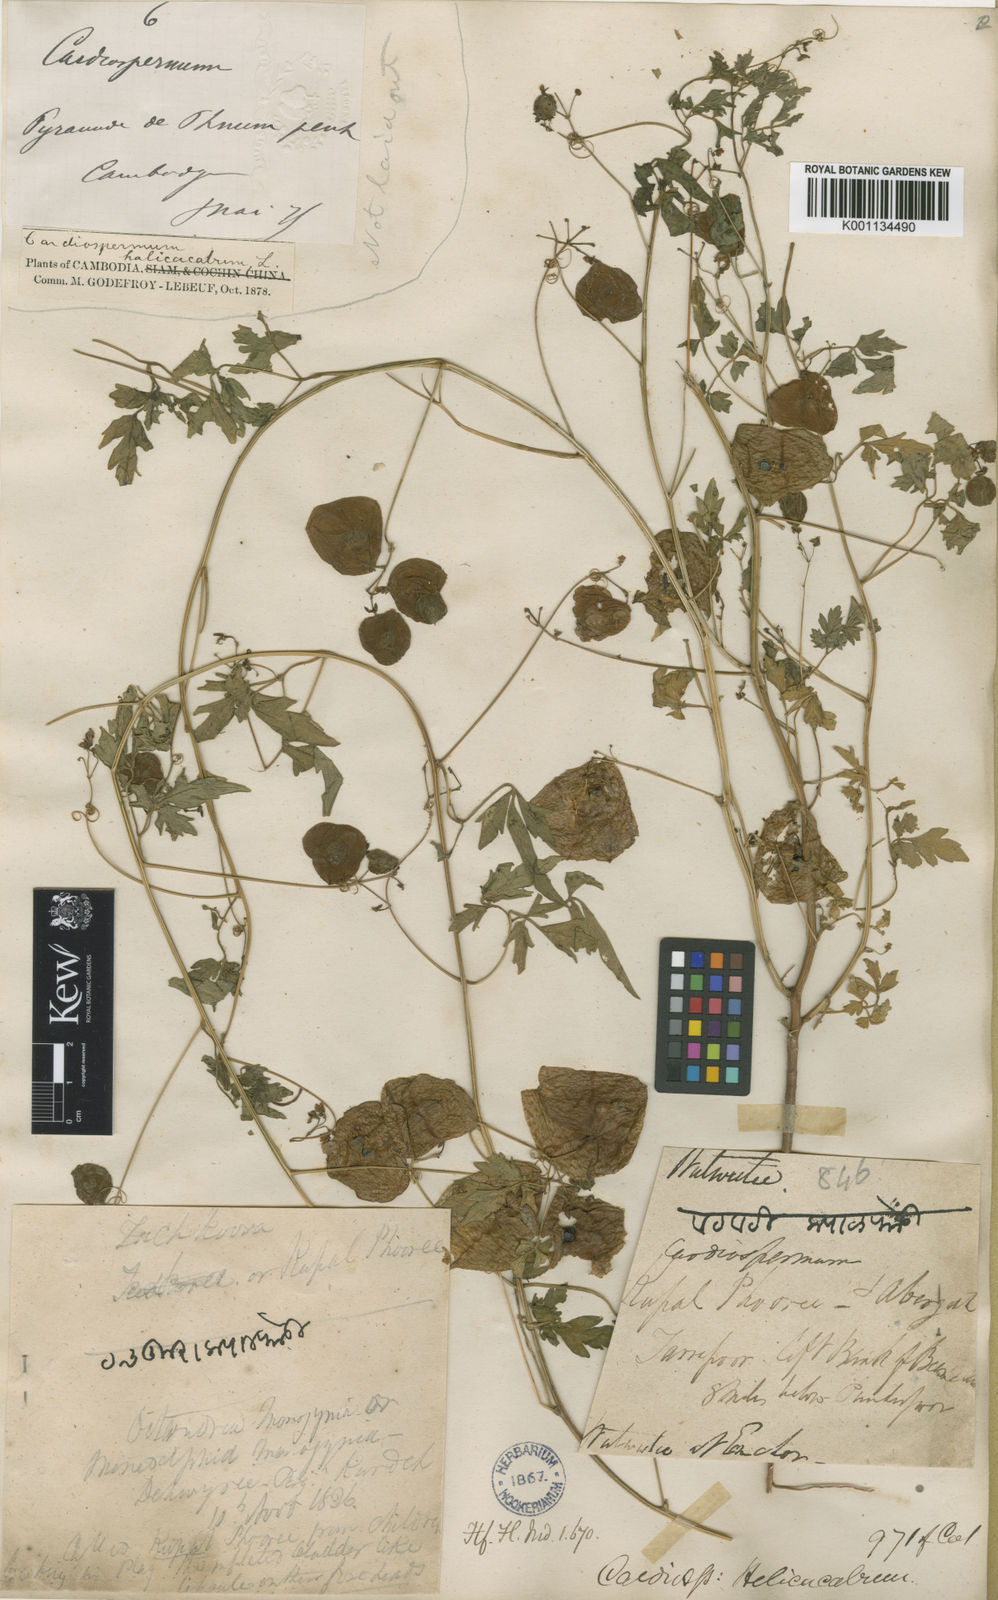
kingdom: Plantae
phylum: Tracheophyta
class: Magnoliopsida
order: Sapindales
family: Sapindaceae
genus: Cardiospermum
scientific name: Cardiospermum halicacabum
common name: Balloon vine
